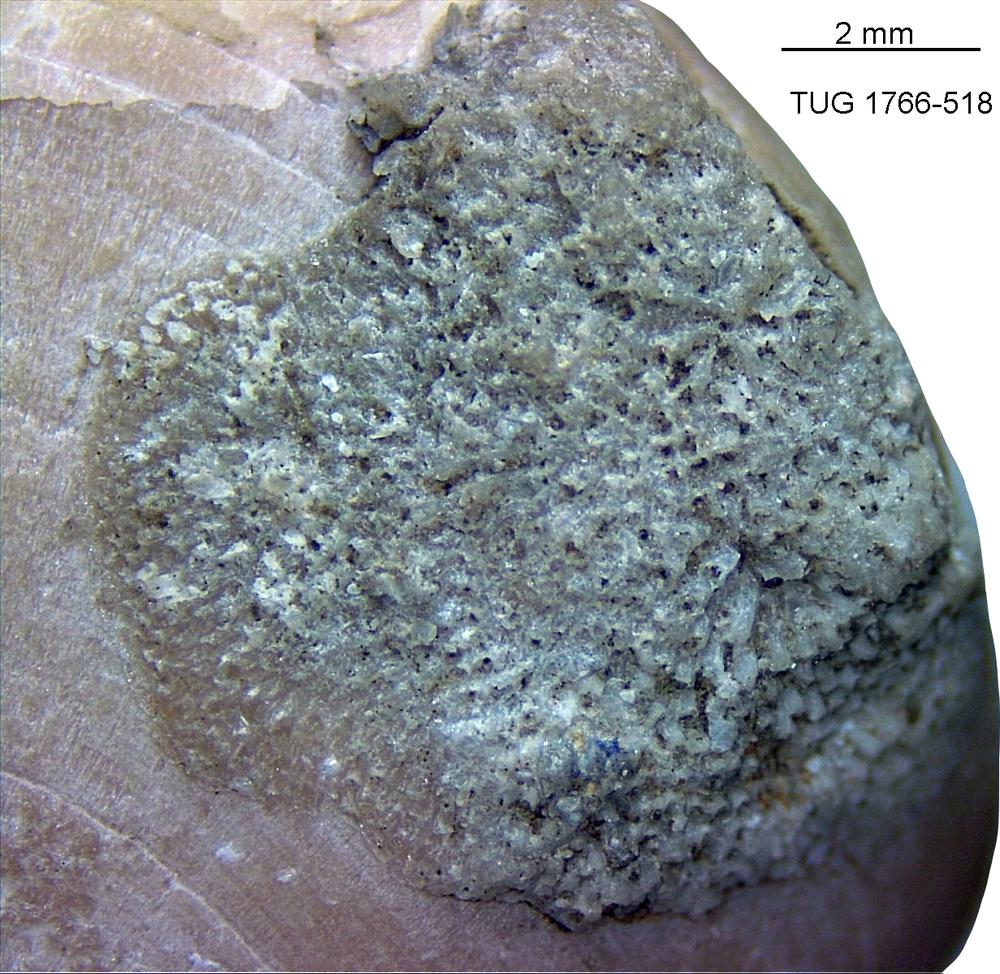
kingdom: Animalia
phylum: Bryozoa
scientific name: Bryozoa
